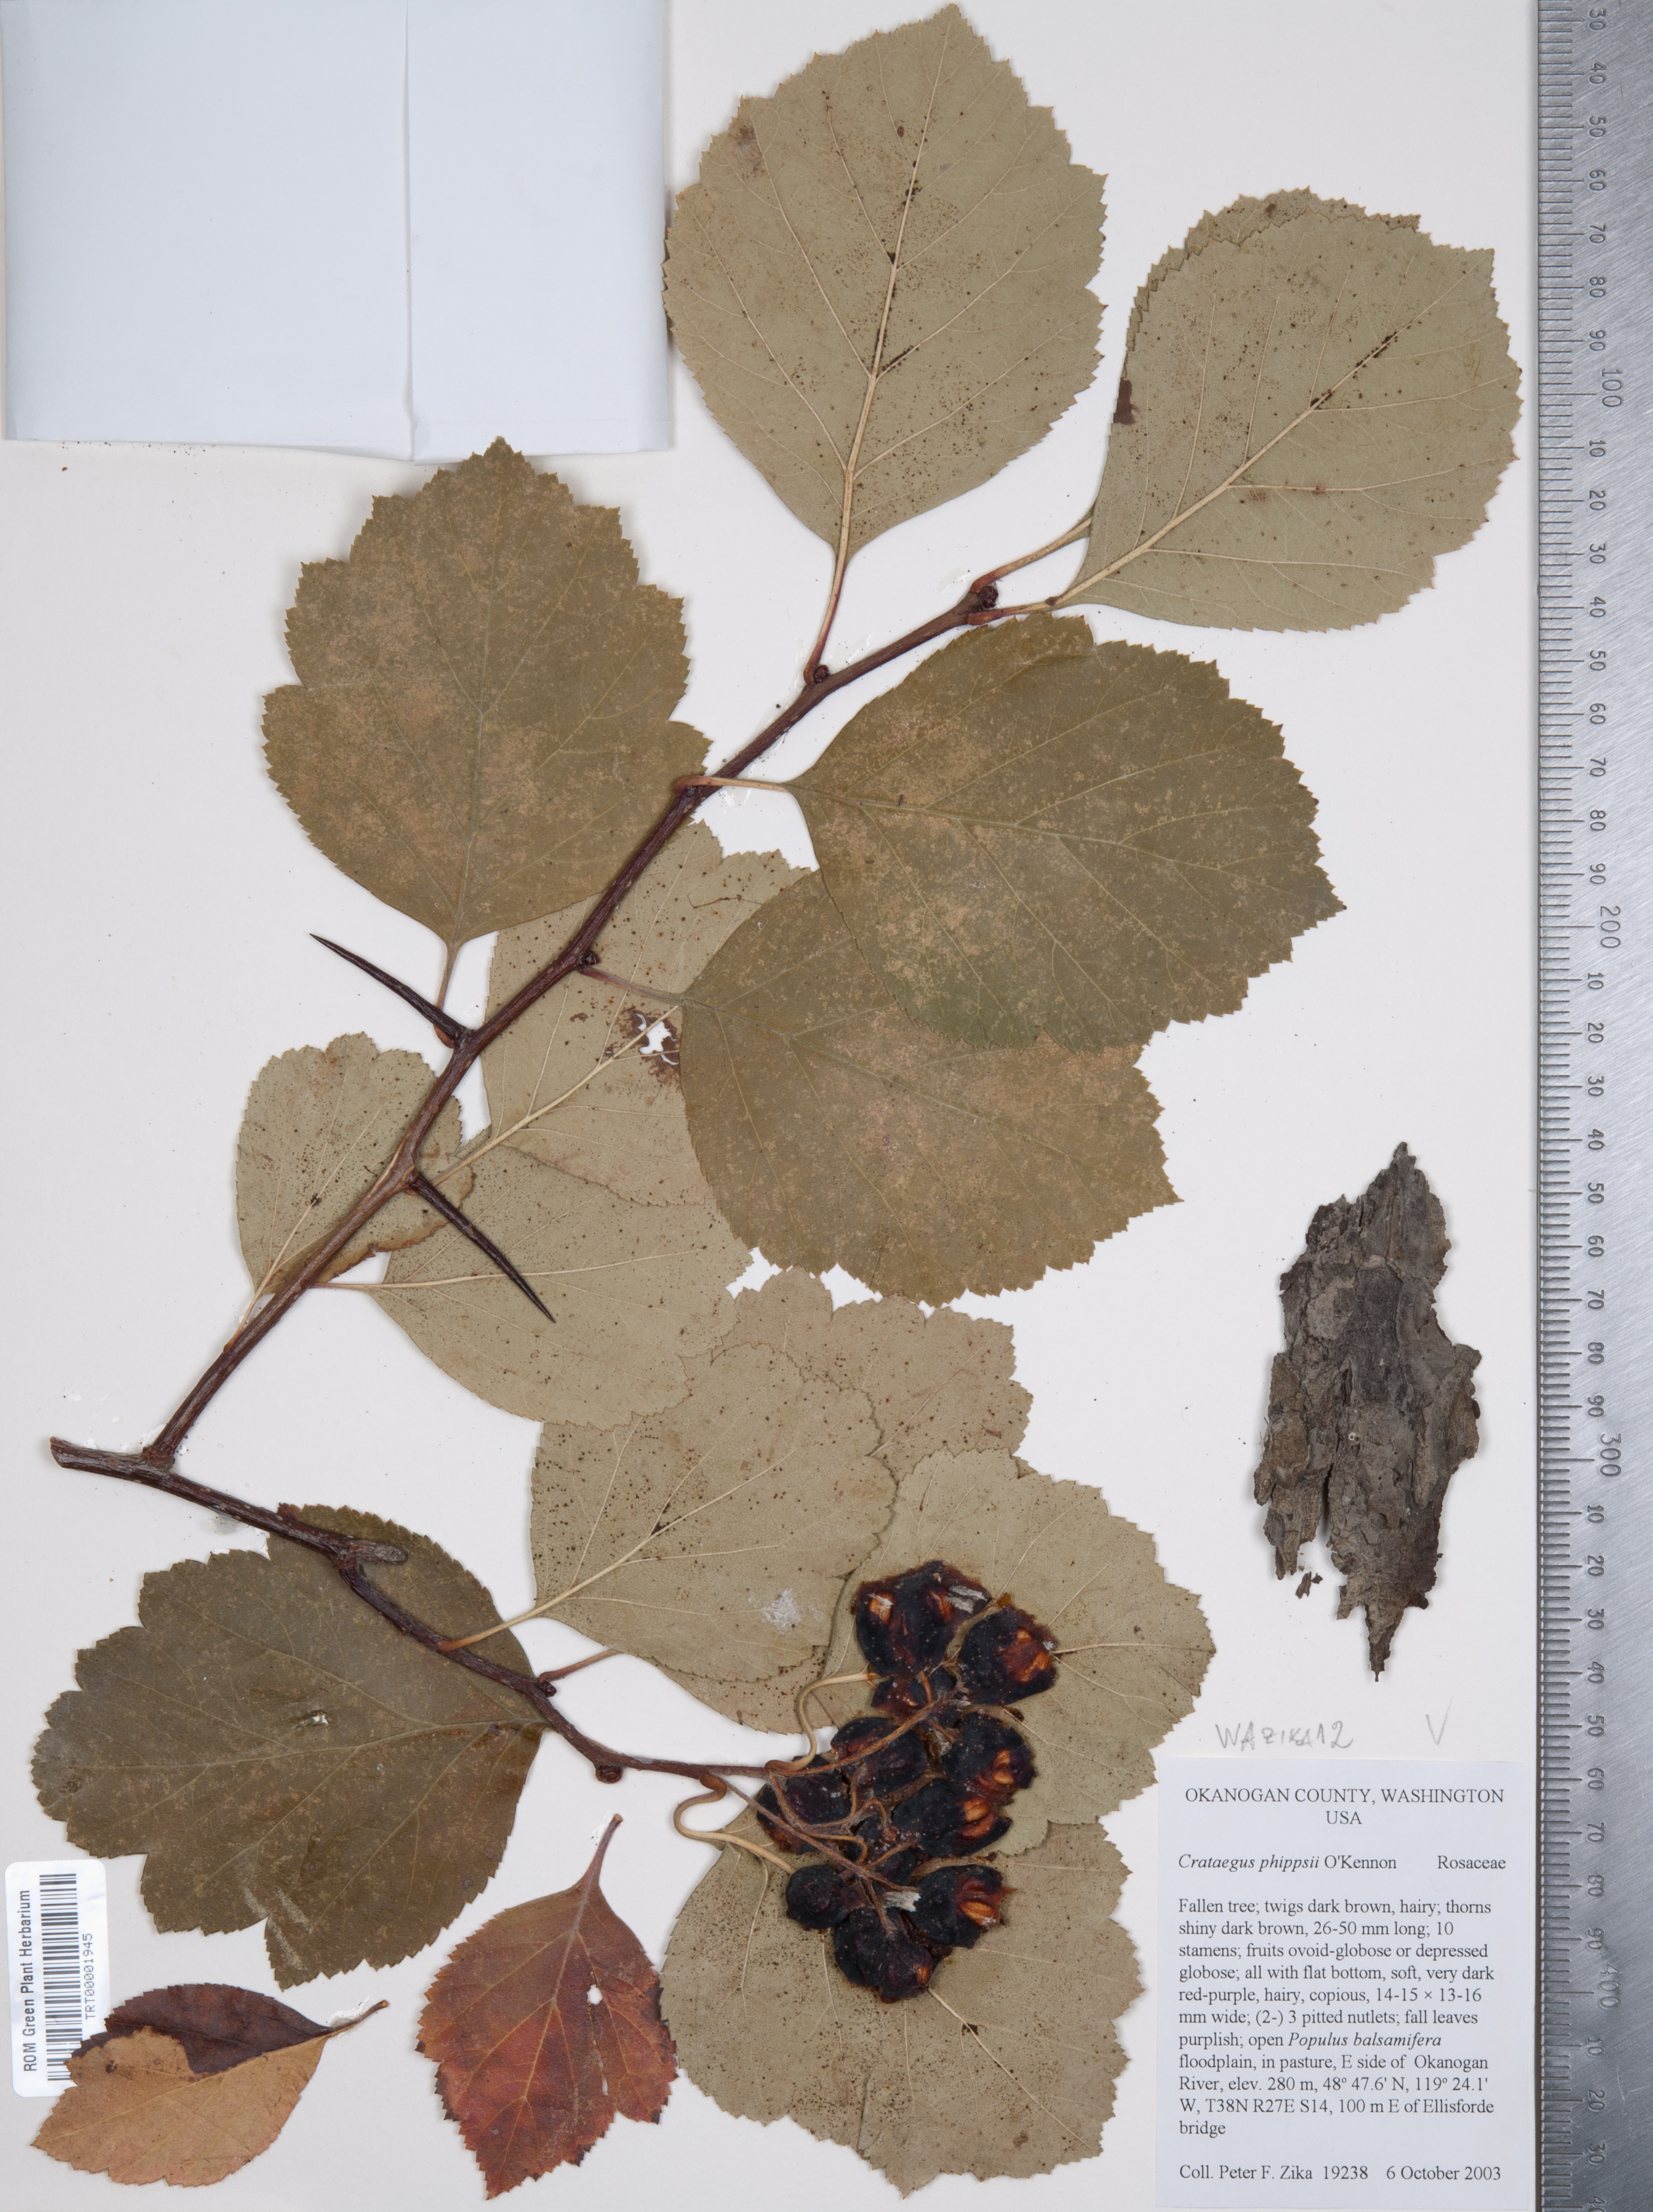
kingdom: Plantae
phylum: Tracheophyta
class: Magnoliopsida
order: Rosales
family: Rosaceae
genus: Crataegus
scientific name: Crataegus phippsii
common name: Phipps' hawthorn
